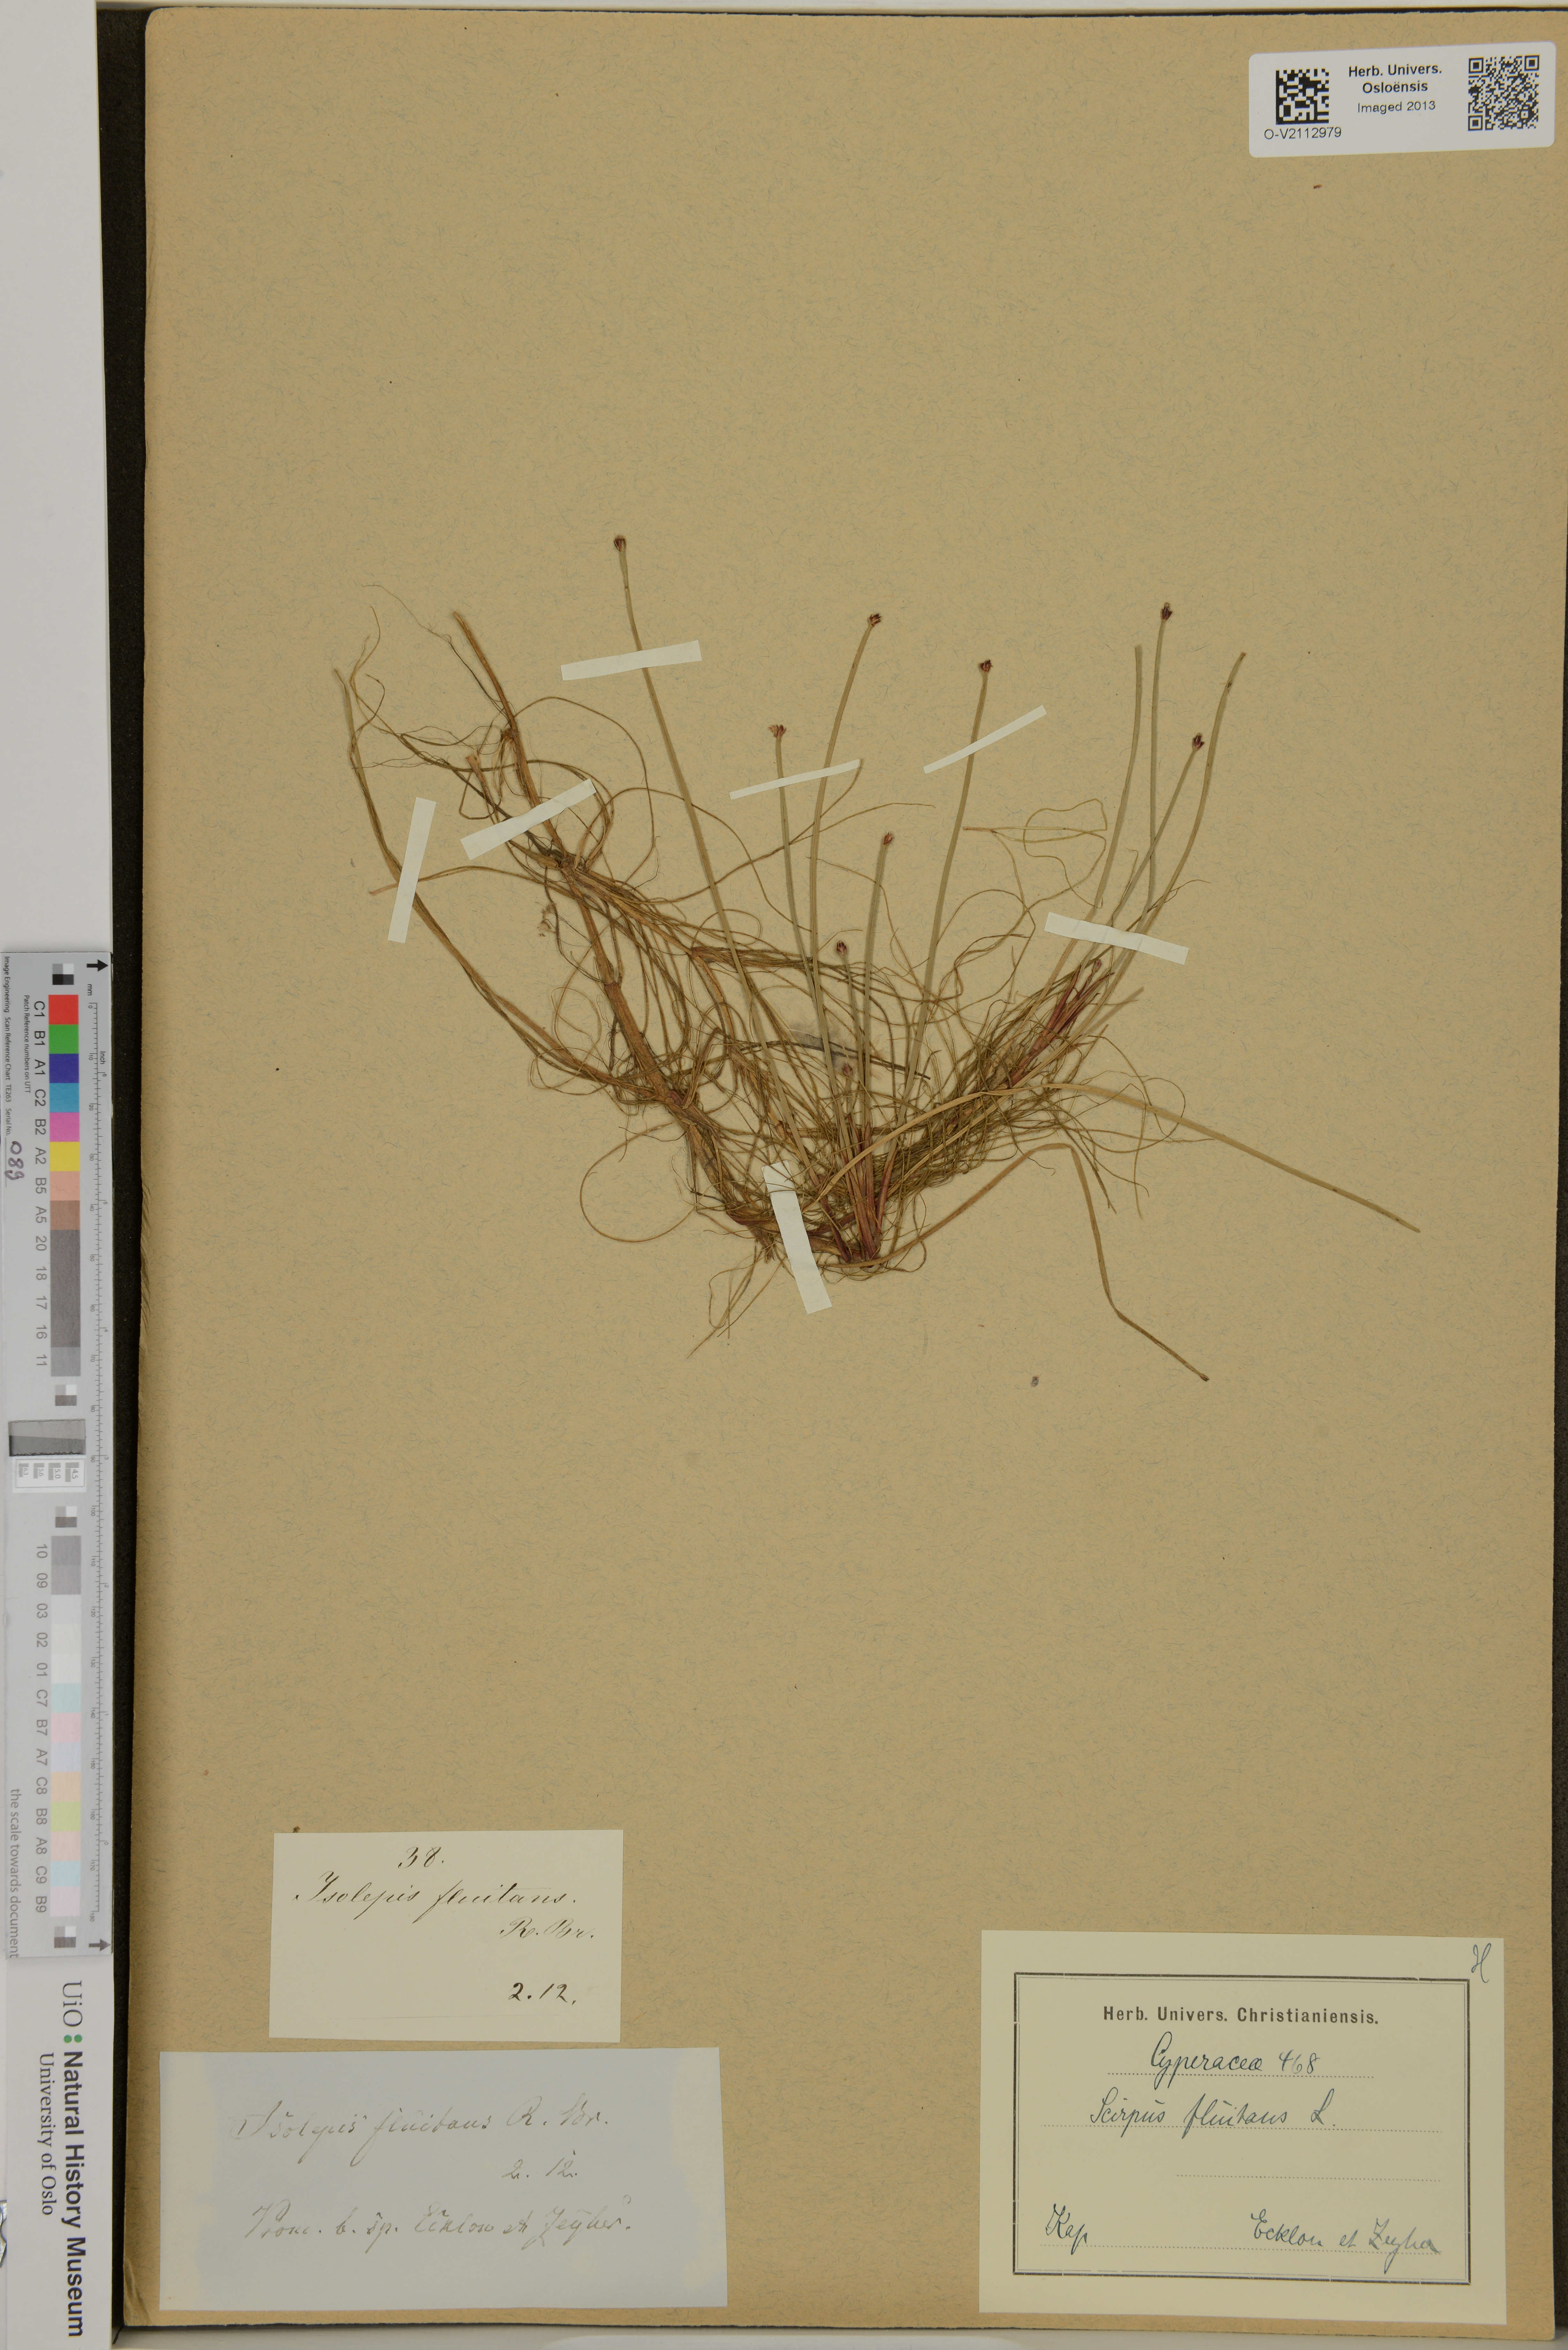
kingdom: Plantae
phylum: Tracheophyta
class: Liliopsida
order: Poales
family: Cyperaceae
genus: Isolepis
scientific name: Isolepis fluitans
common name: Floating club-rush
